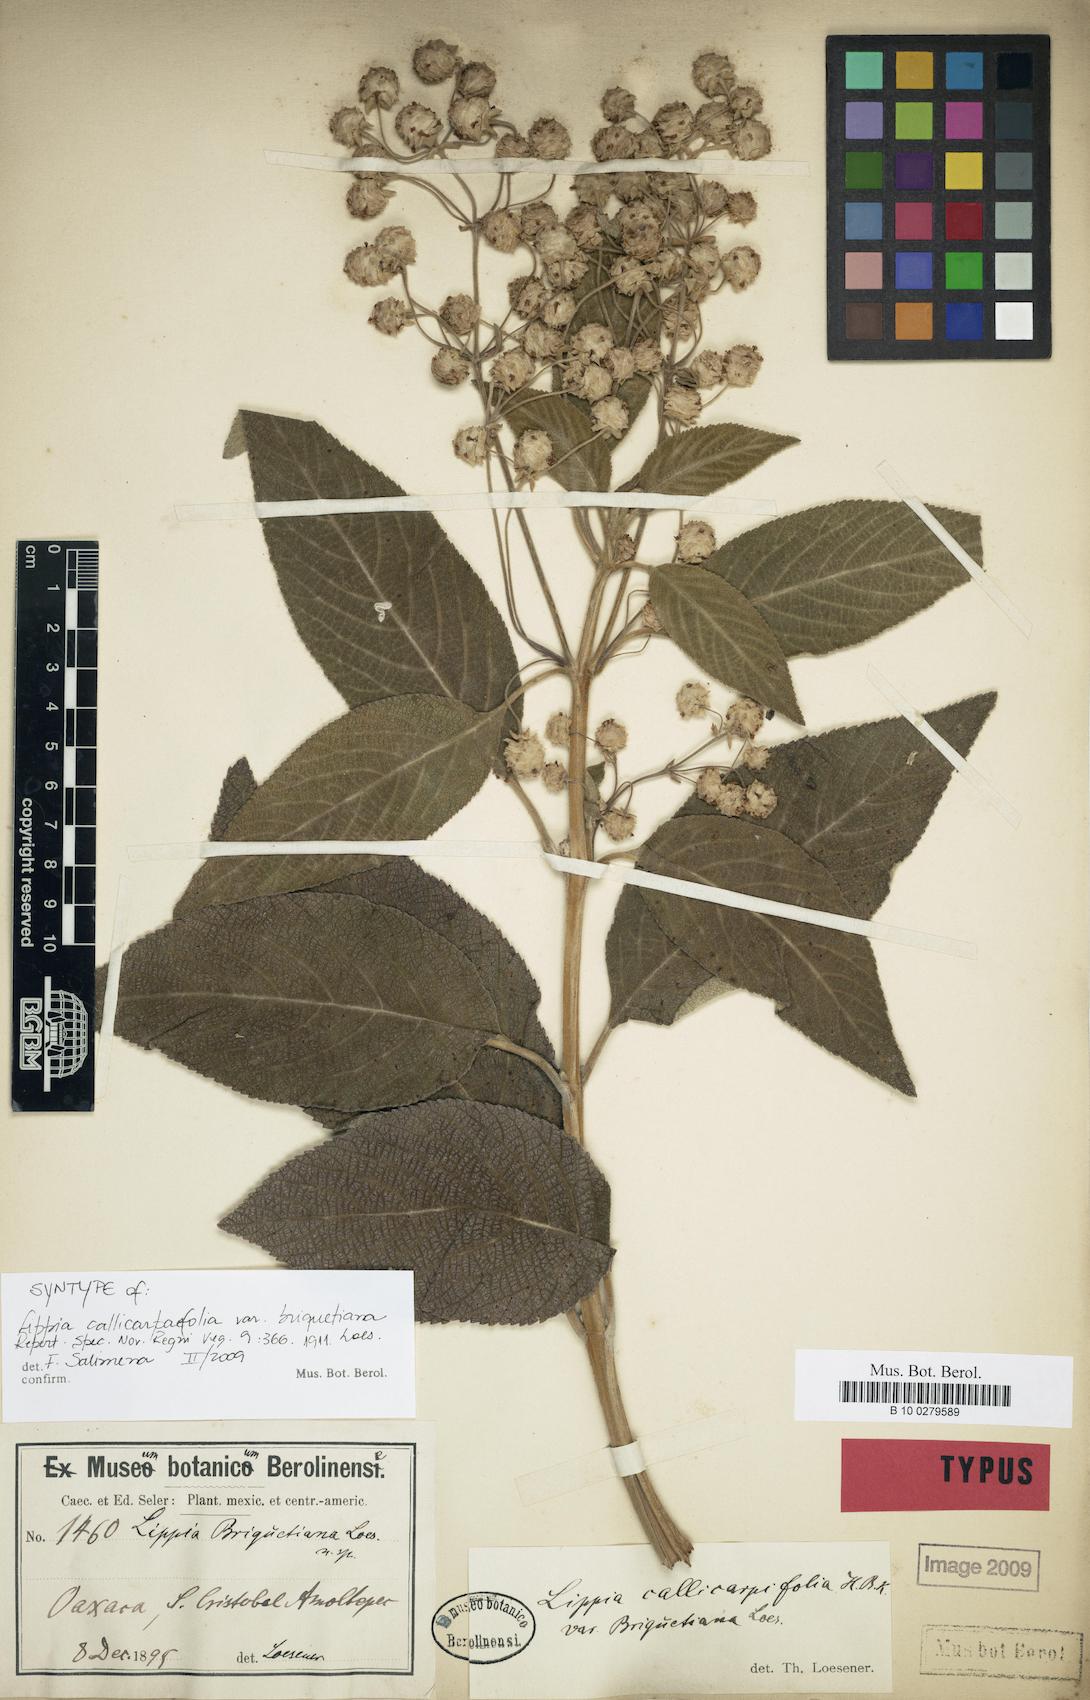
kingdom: Plantae
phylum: Tracheophyta
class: Magnoliopsida
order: Lamiales
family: Verbenaceae
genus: Lippia
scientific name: Lippia umbellata
